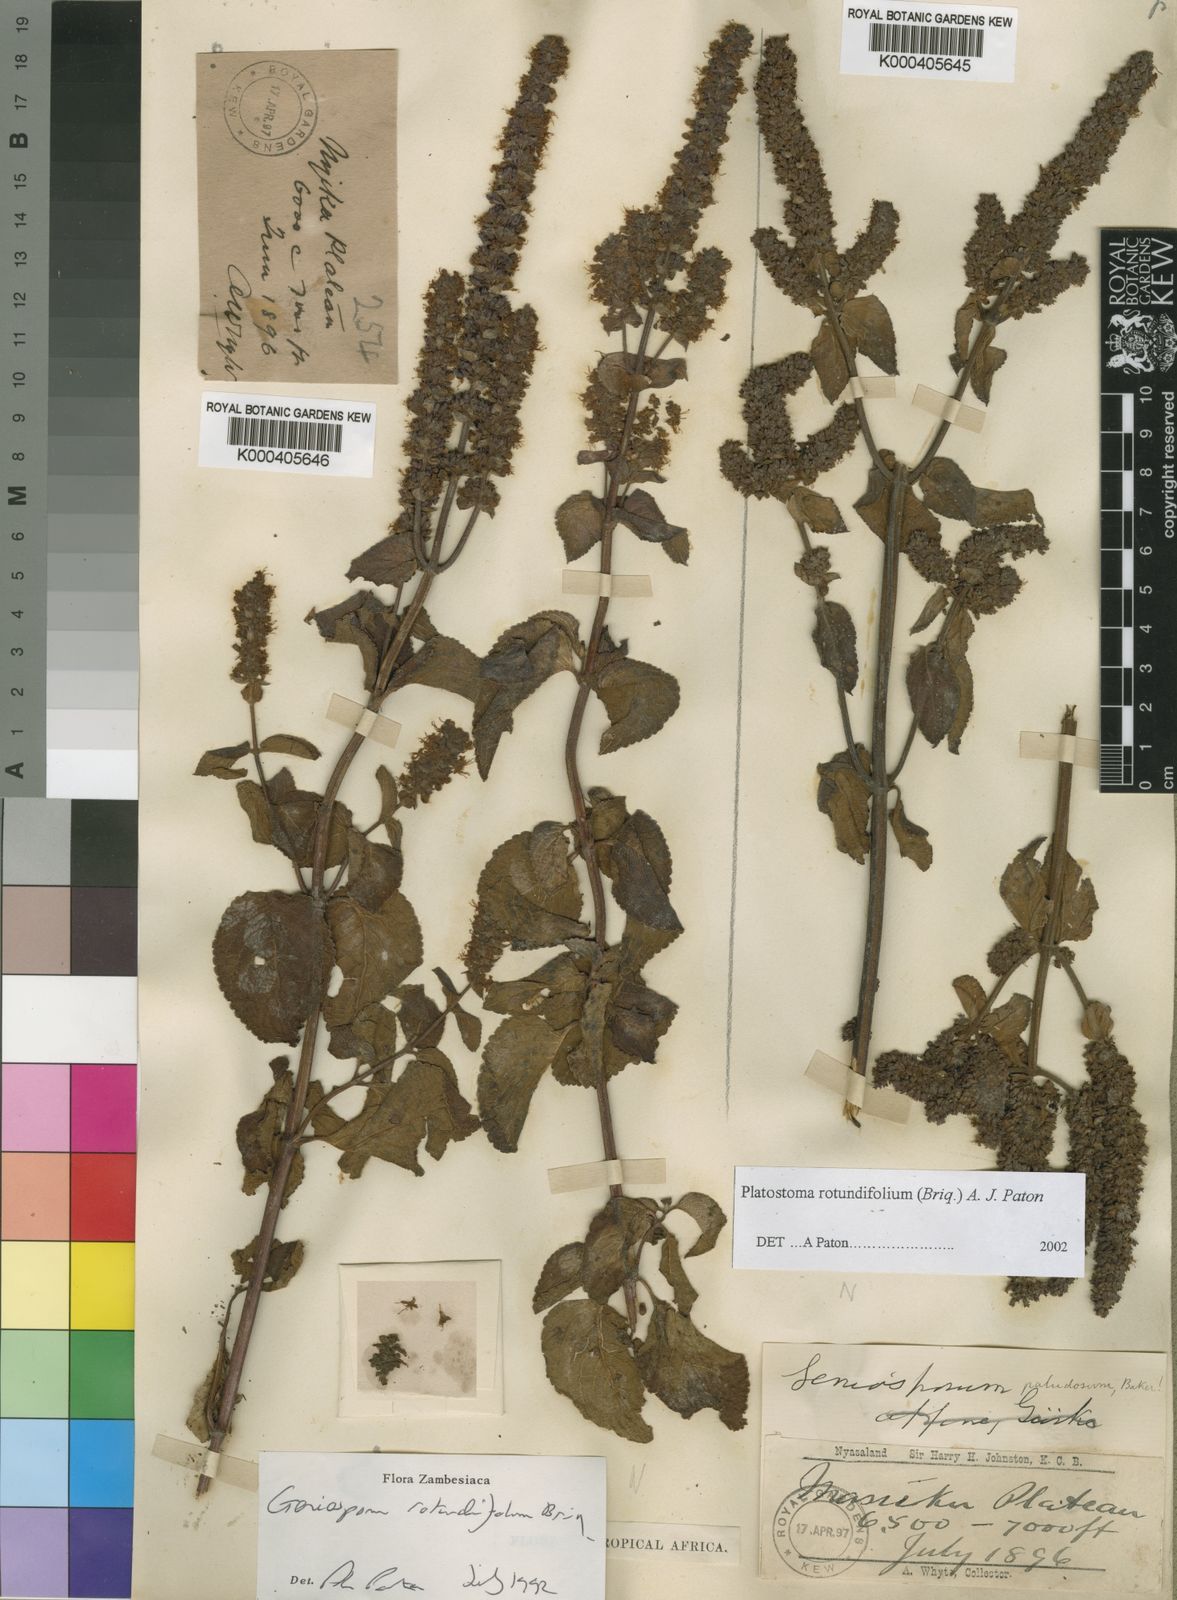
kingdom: Plantae
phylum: Tracheophyta
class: Magnoliopsida
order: Lamiales
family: Lamiaceae
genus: Platostoma
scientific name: Platostoma rotundifolium
